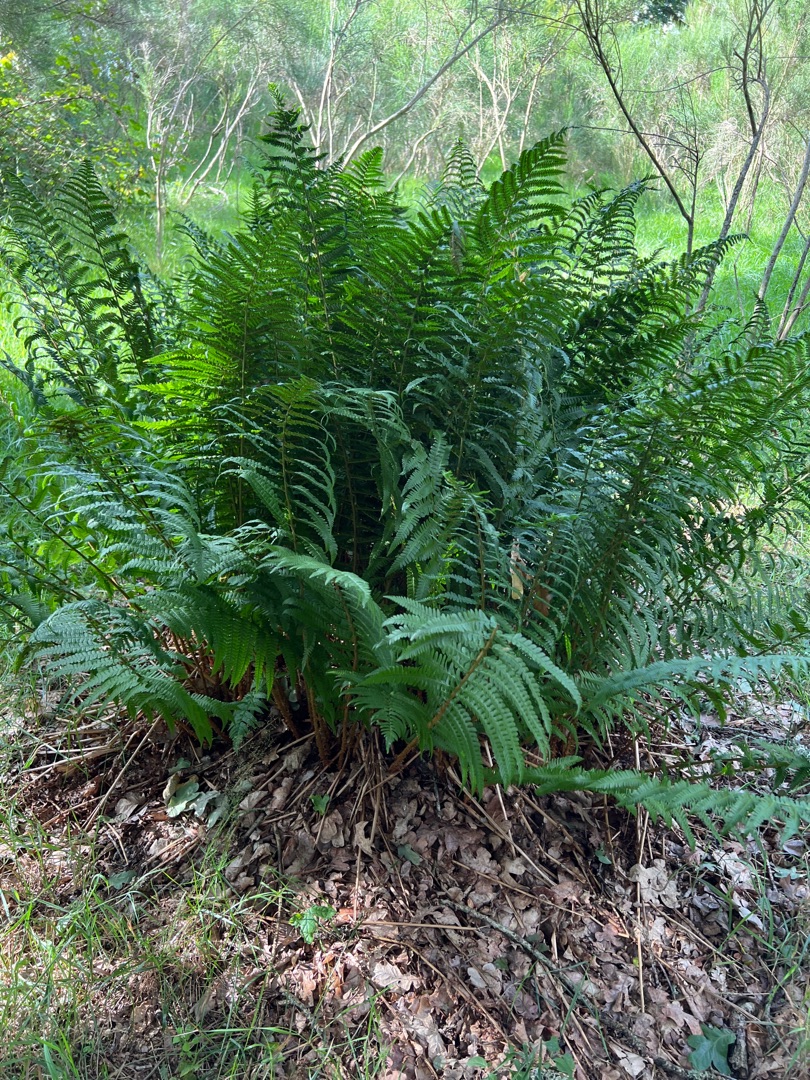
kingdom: Plantae
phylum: Tracheophyta
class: Polypodiopsida
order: Polypodiales
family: Dryopteridaceae
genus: Dryopteris
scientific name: Dryopteris
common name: Mangeløv (Dryopteris-slægten)
